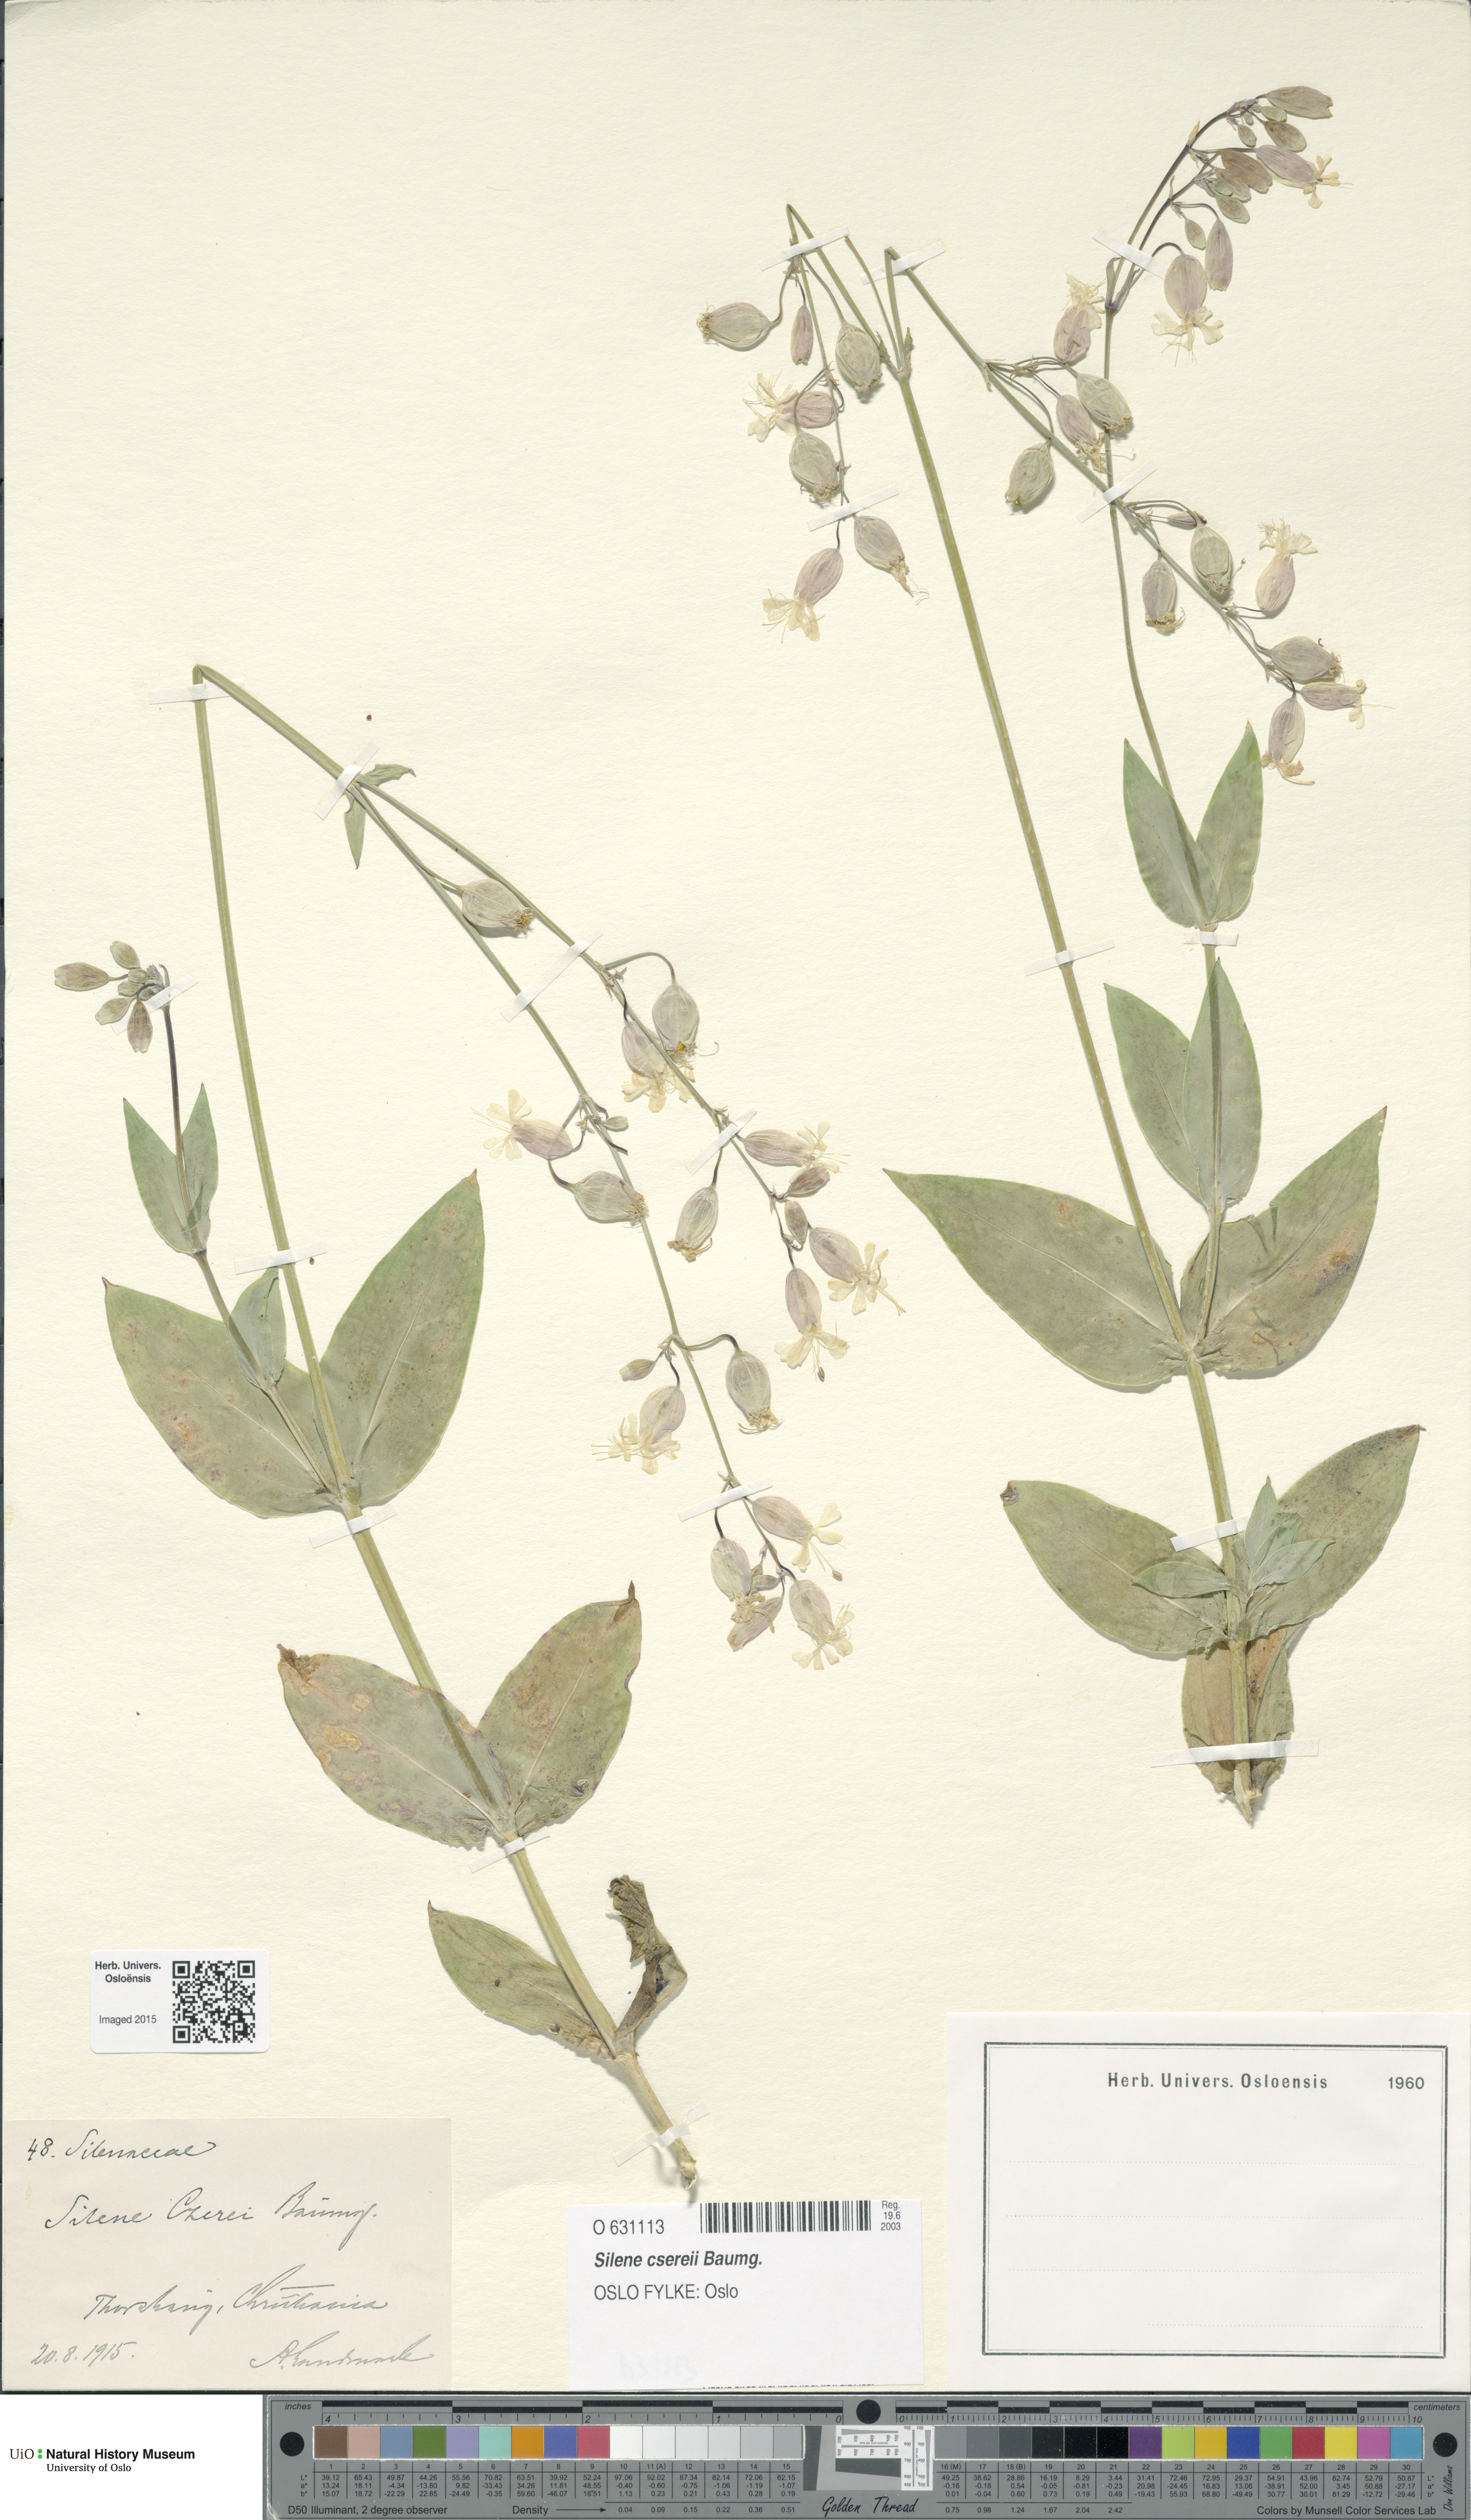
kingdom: Plantae
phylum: Tracheophyta
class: Magnoliopsida
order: Caryophyllales
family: Caryophyllaceae
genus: Silene
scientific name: Silene csereii
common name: Balkan catchfly
